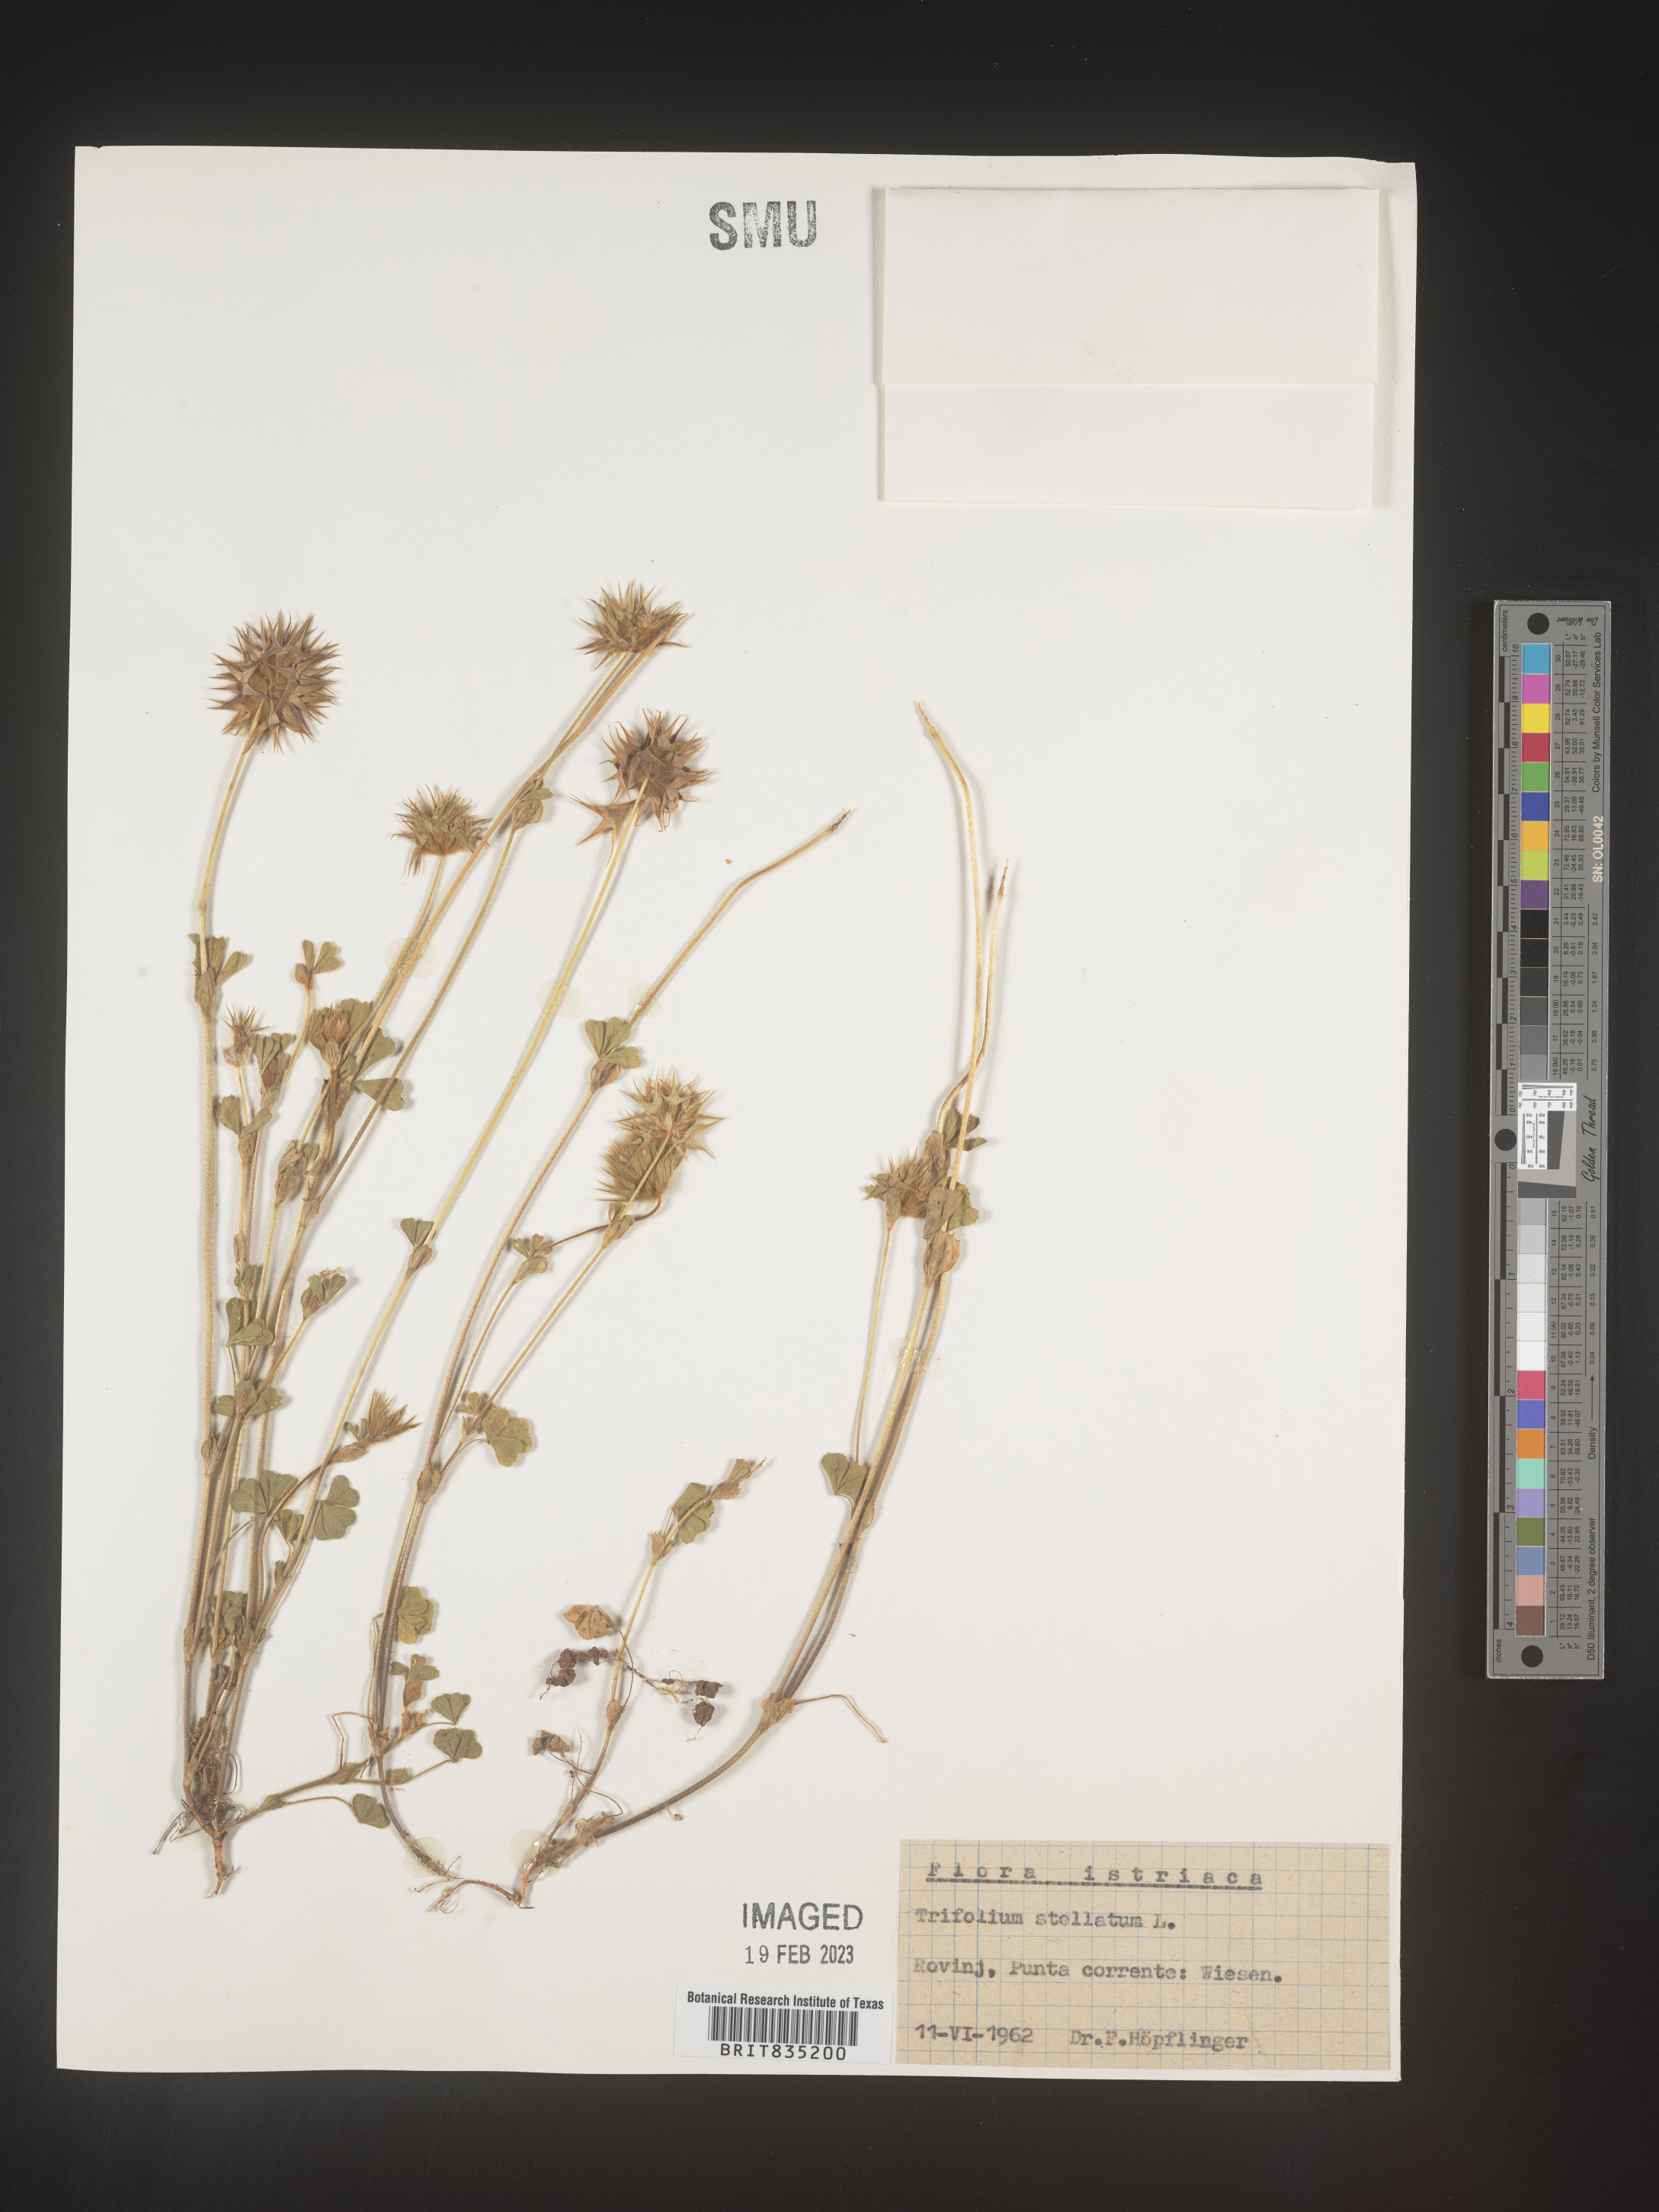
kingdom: Plantae
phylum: Tracheophyta
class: Magnoliopsida
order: Fabales
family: Fabaceae
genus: Trifolium
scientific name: Trifolium
